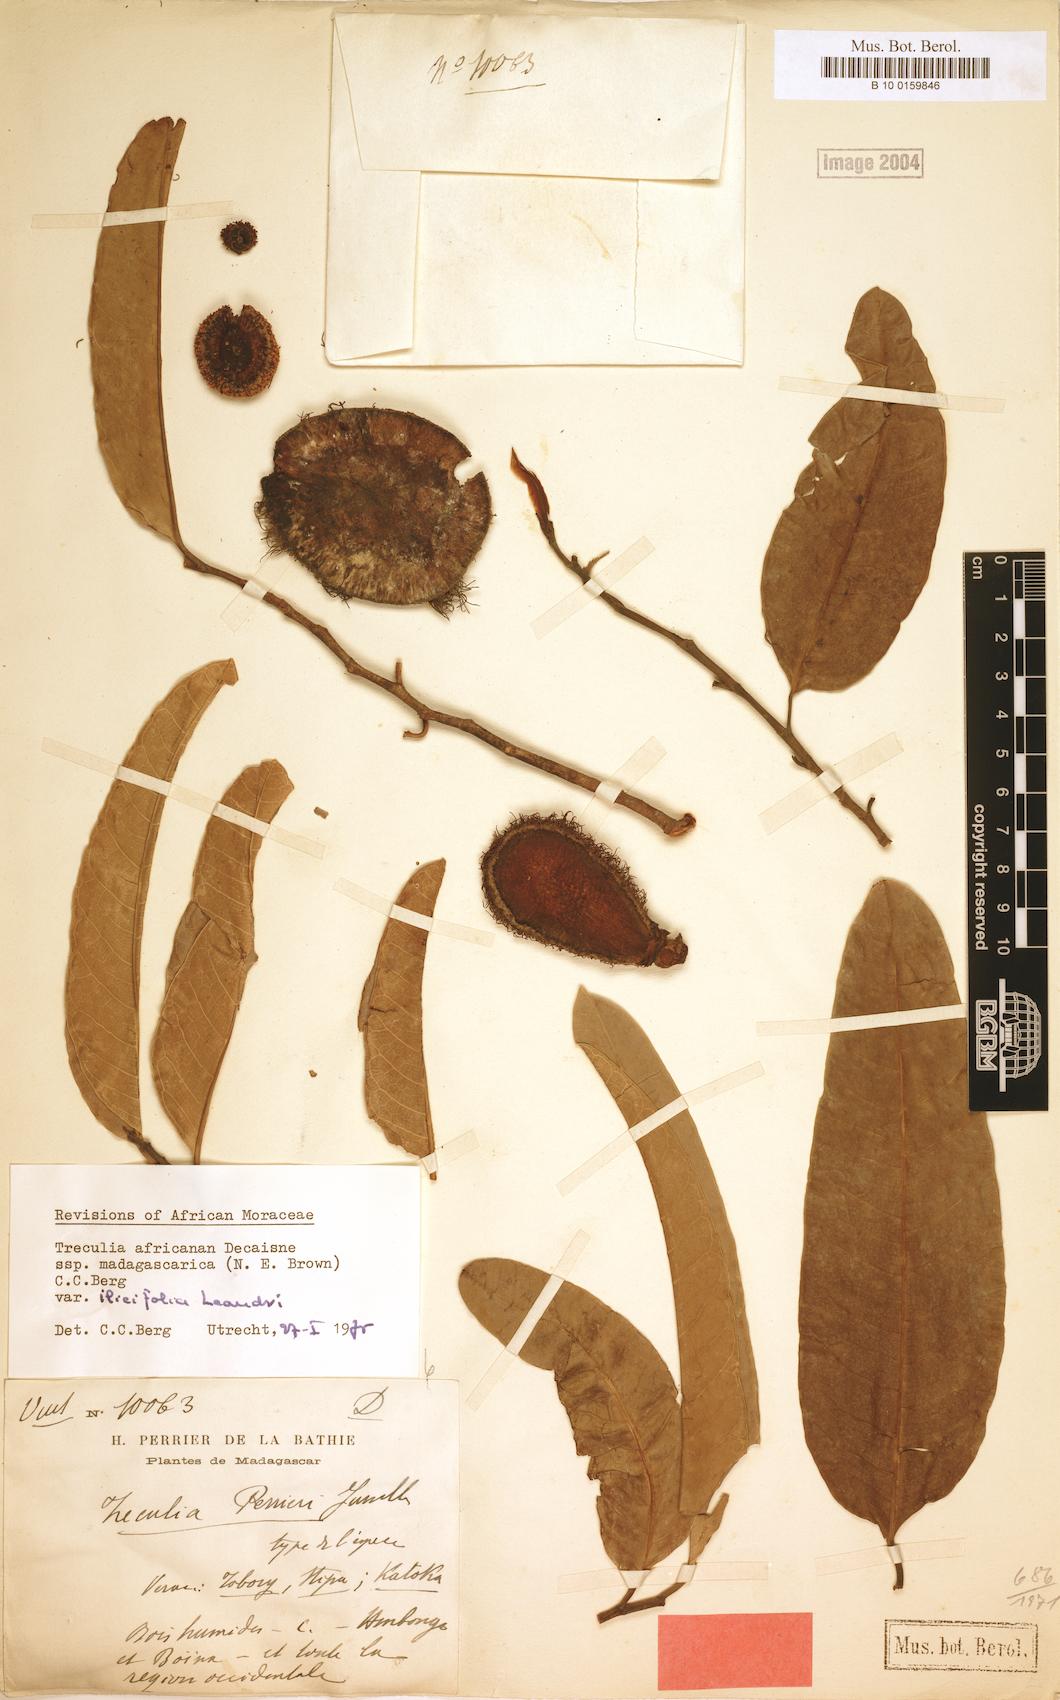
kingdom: Plantae
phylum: Tracheophyta
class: Magnoliopsida
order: Rosales
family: Moraceae
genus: Treculia
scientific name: Treculia africana
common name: African breadfruit
